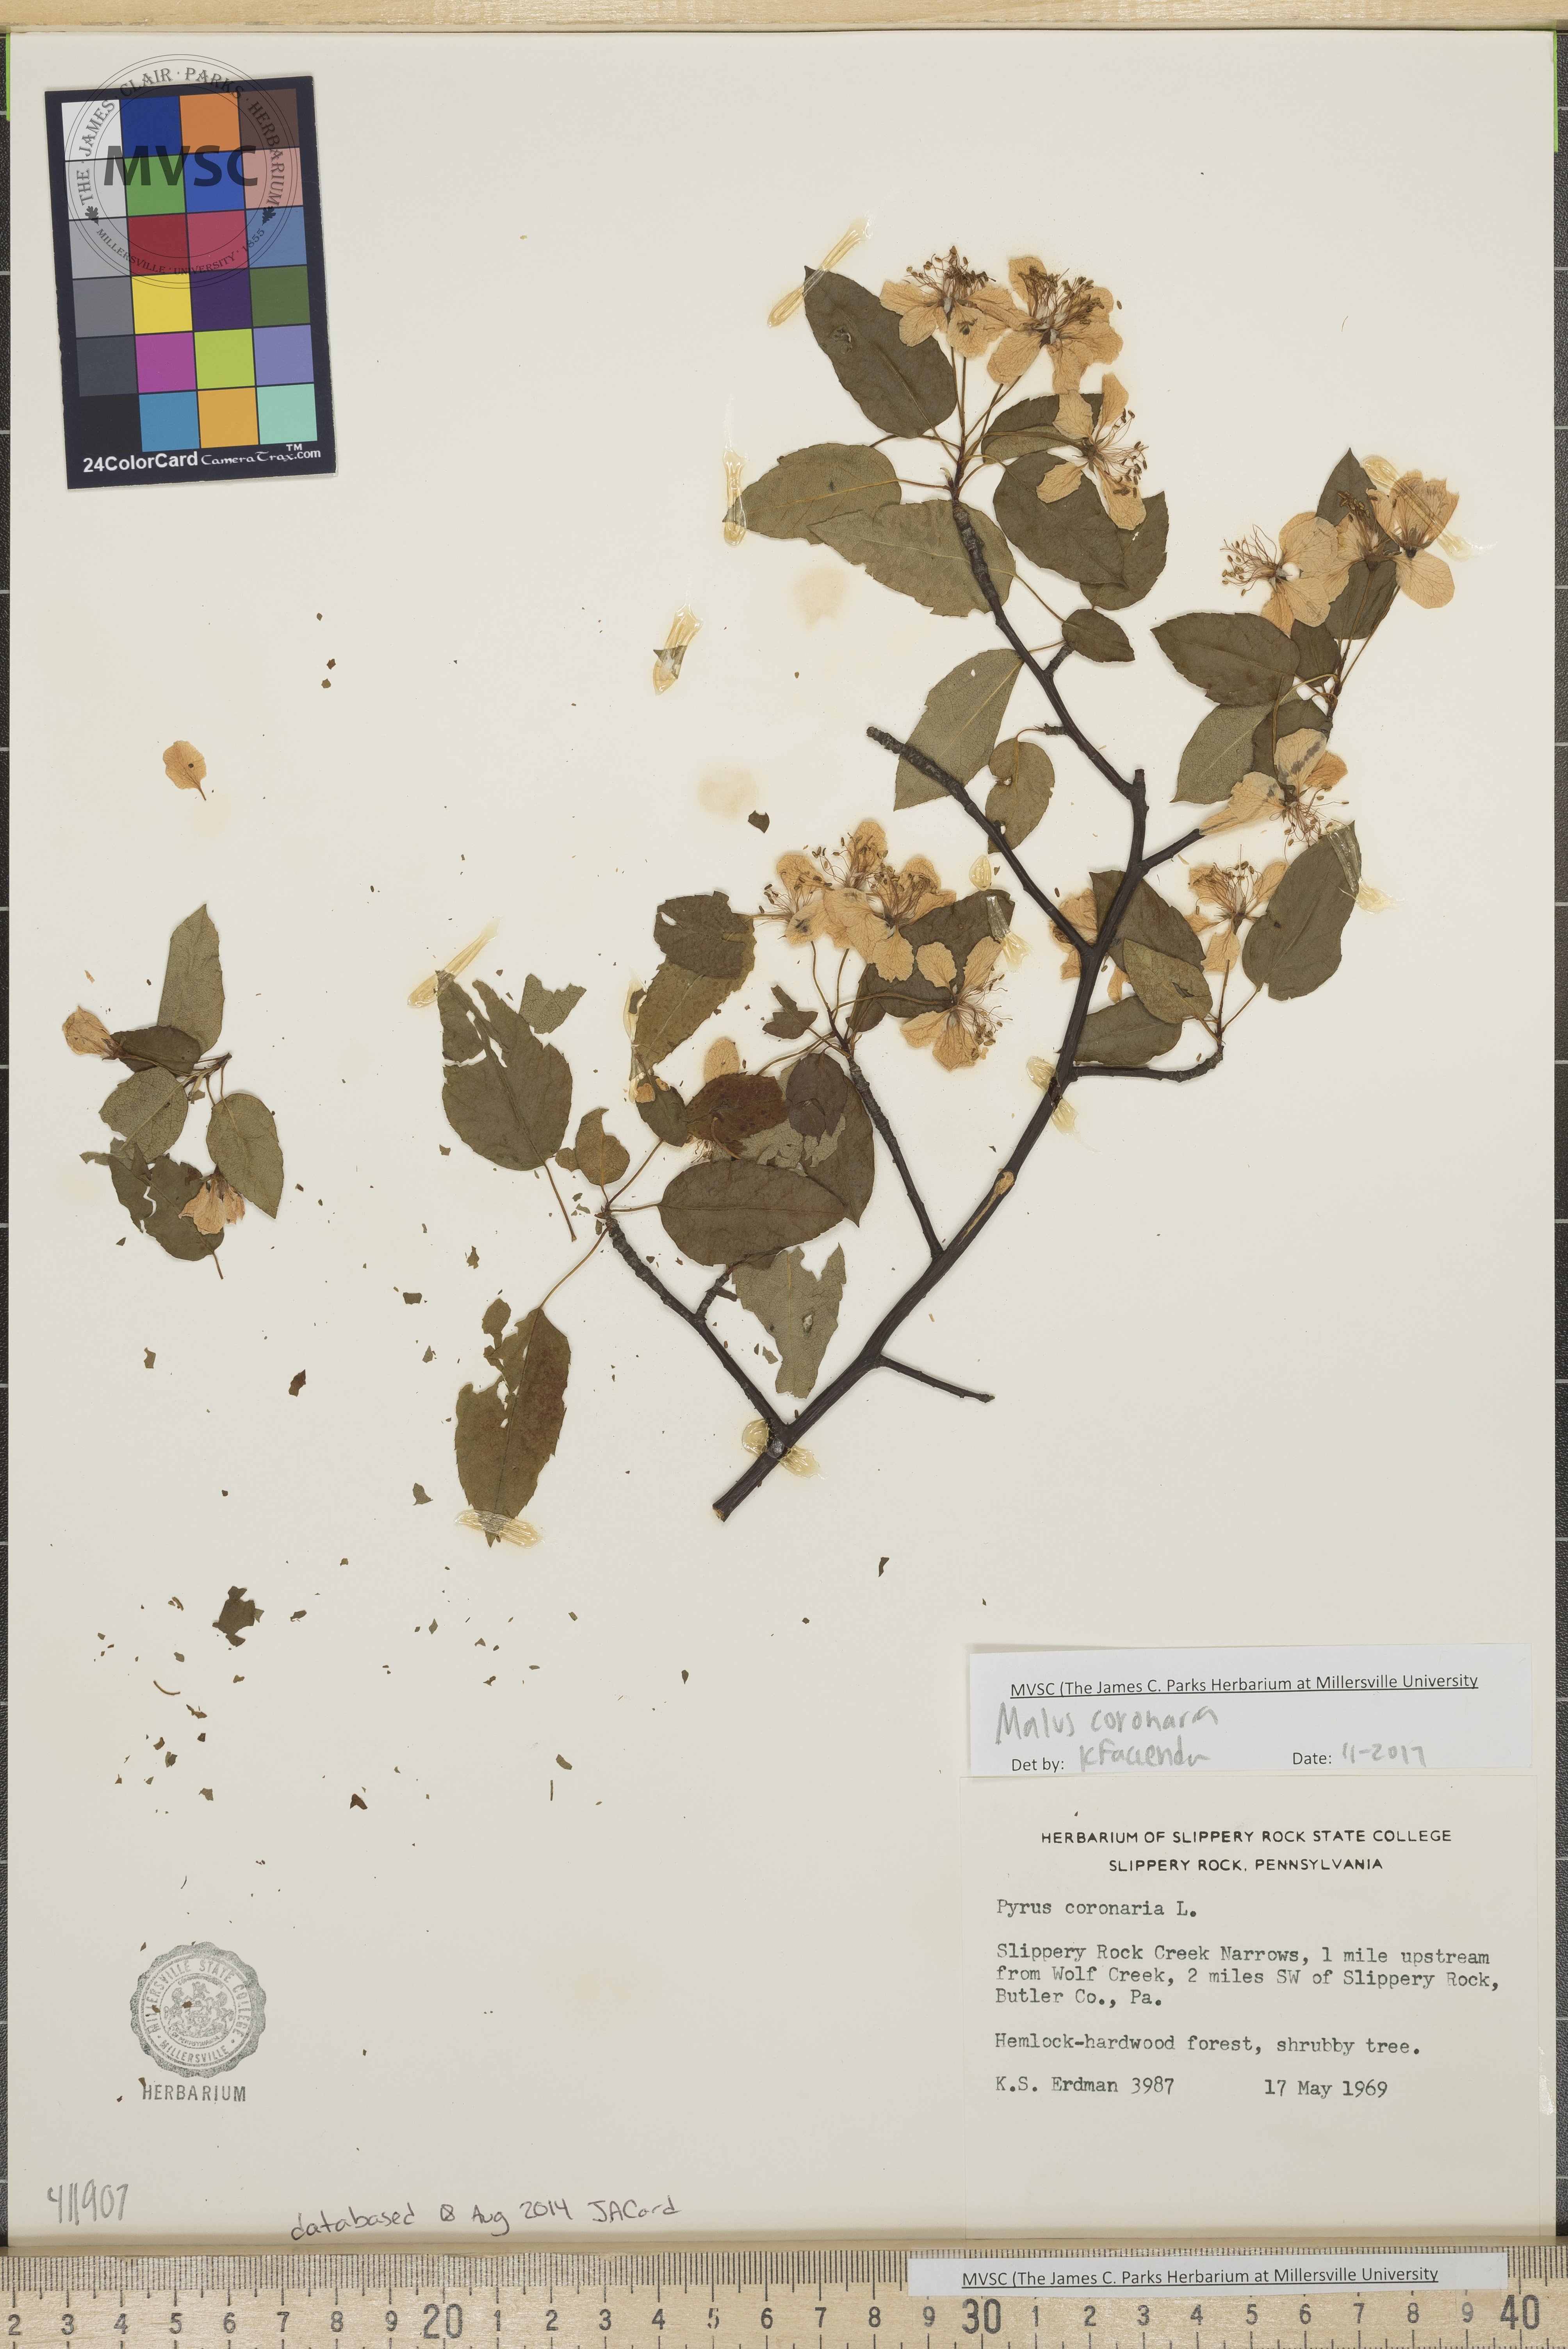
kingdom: Plantae
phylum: Tracheophyta
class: Magnoliopsida
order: Rosales
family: Rosaceae
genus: Malus
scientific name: Malus coronaria
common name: Sweet crab apple
